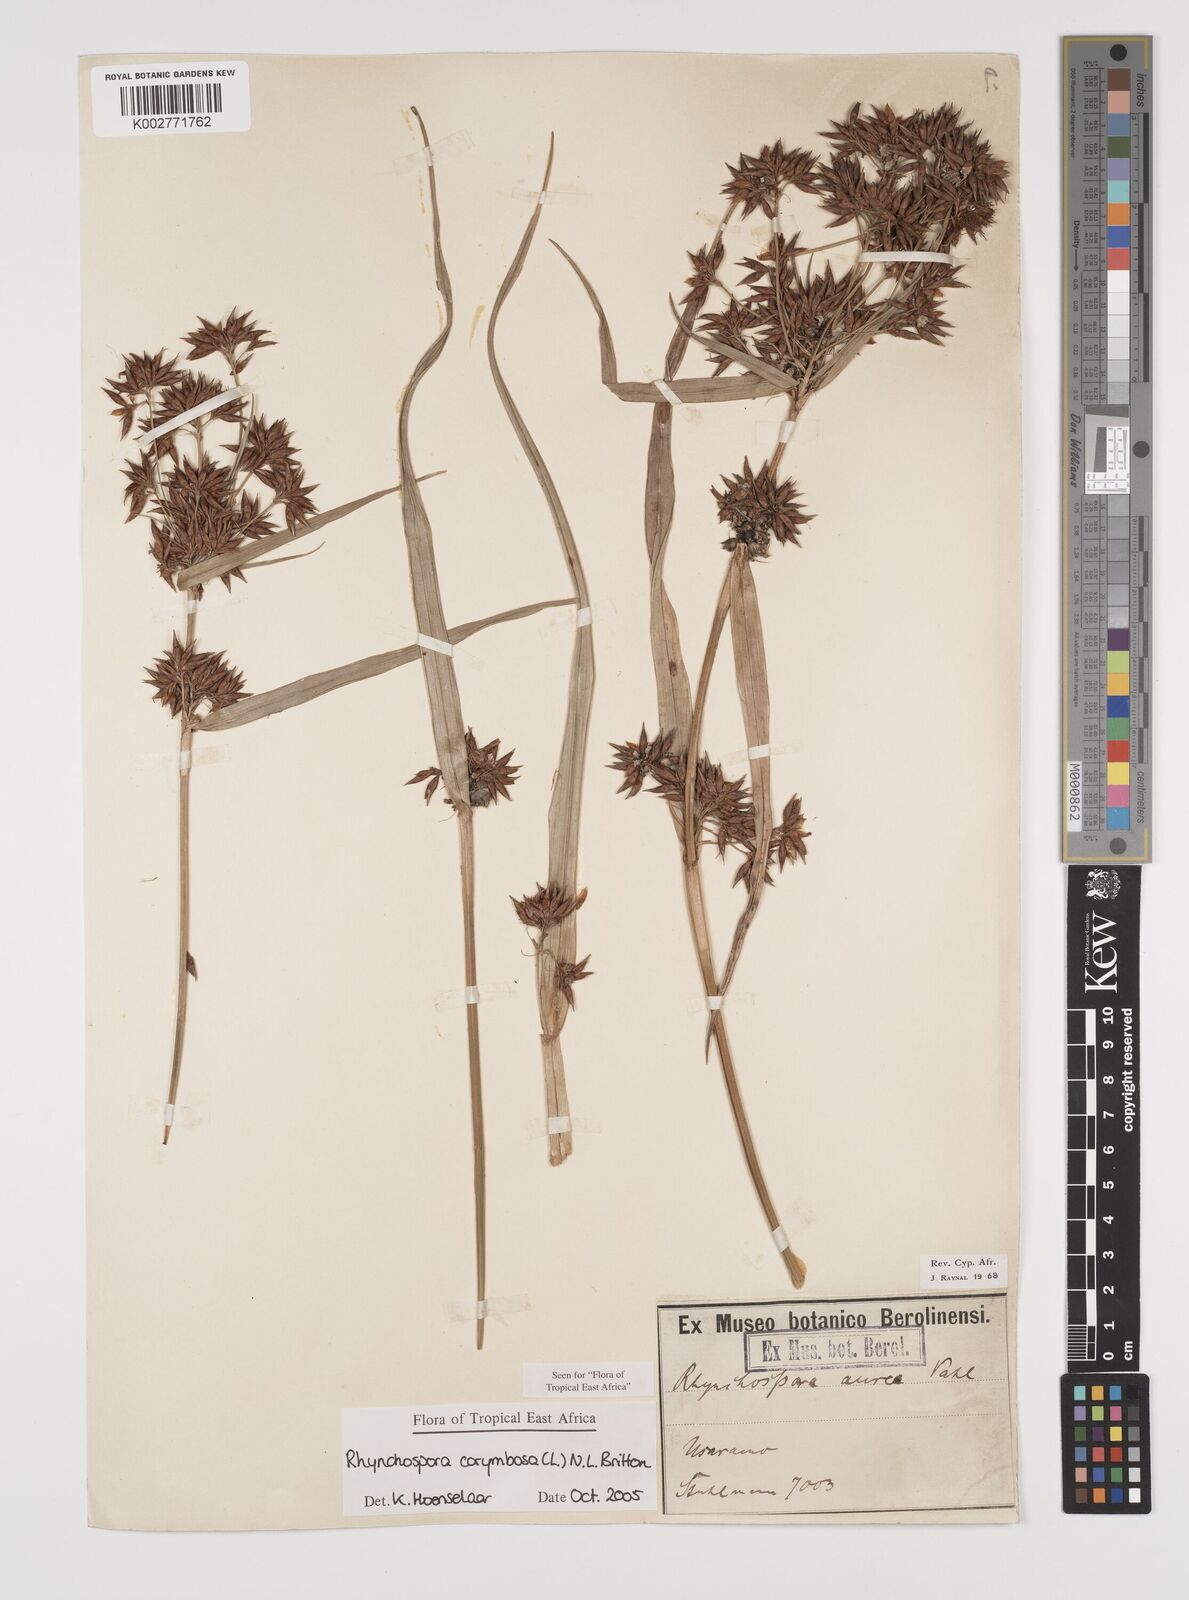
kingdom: Plantae
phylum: Tracheophyta
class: Liliopsida
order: Poales
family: Cyperaceae
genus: Rhynchospora
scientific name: Rhynchospora corymbosa
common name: Golden beak sedge
